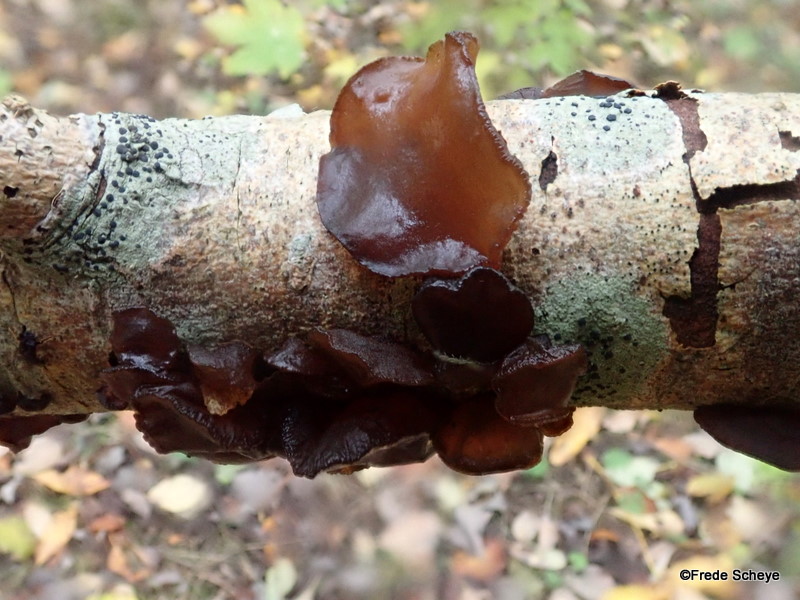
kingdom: Fungi
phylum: Basidiomycota
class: Agaricomycetes
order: Auriculariales
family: Auriculariaceae
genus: Exidia
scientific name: Exidia recisa
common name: pile-bævretop
